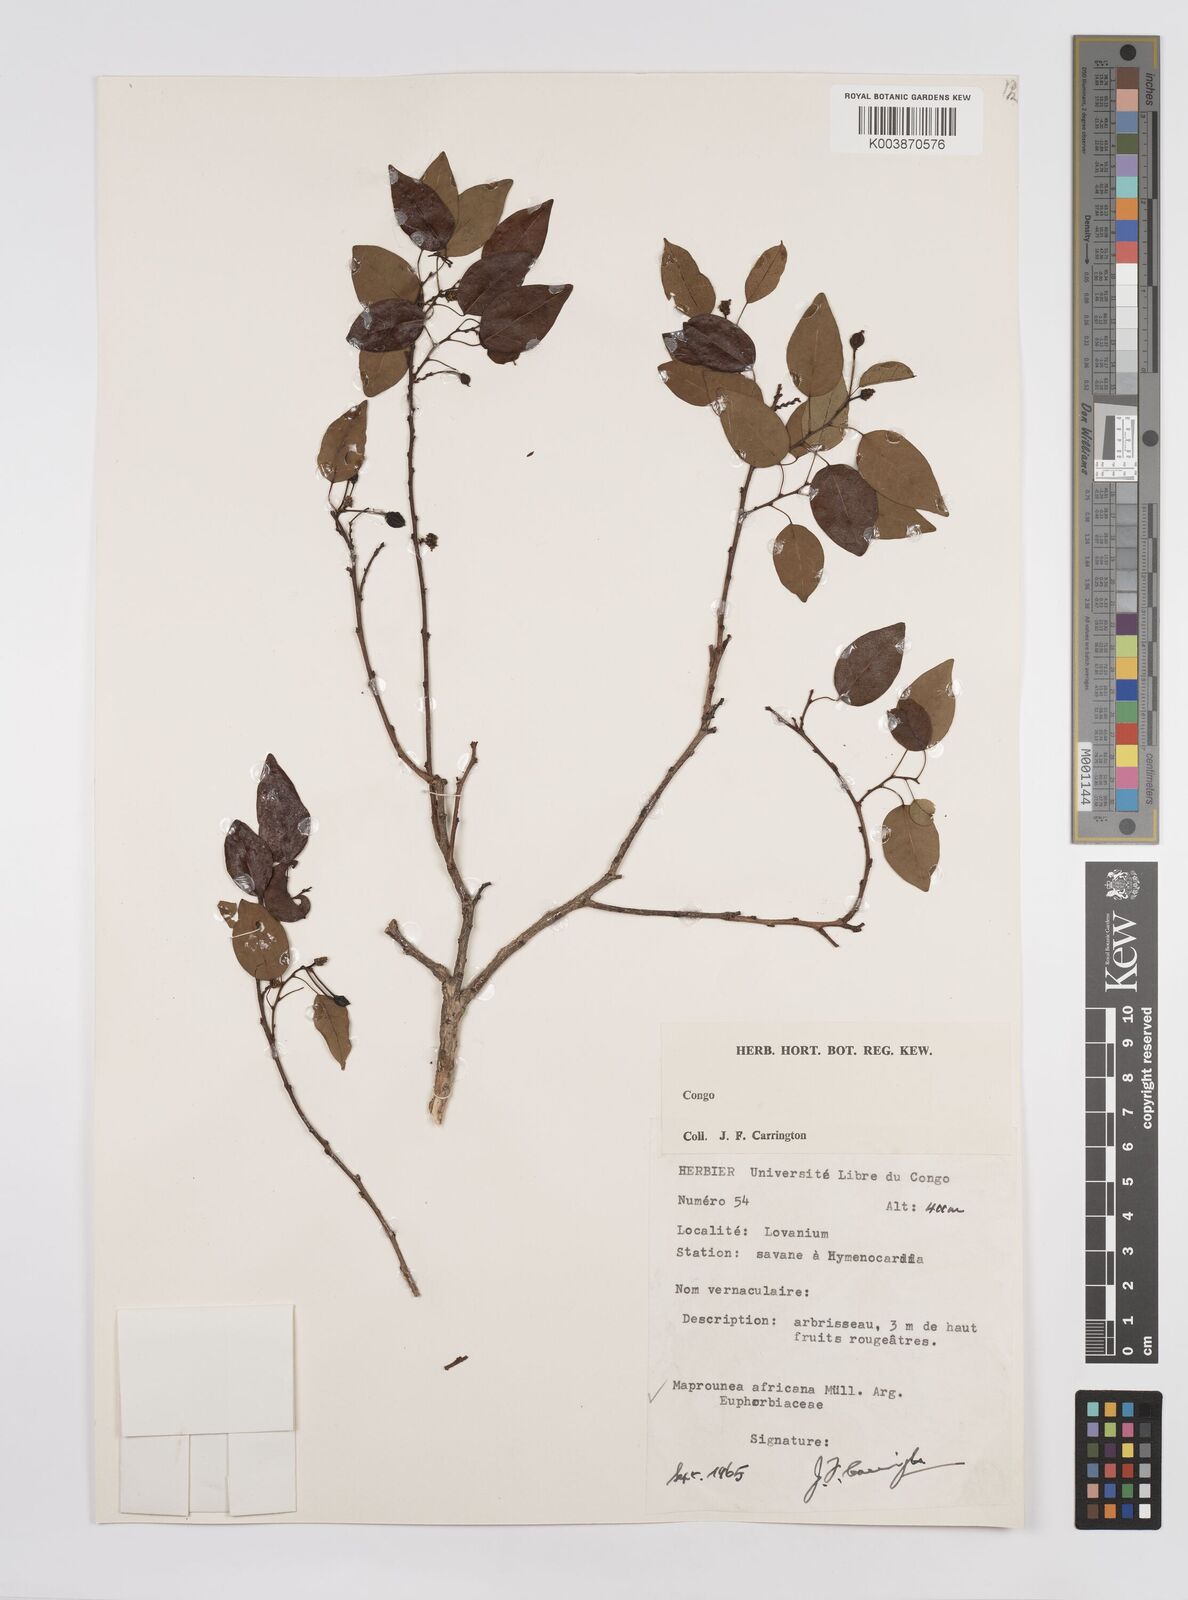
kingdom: Plantae
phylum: Tracheophyta
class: Magnoliopsida
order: Malpighiales
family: Euphorbiaceae
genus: Maprounea
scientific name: Maprounea africana
